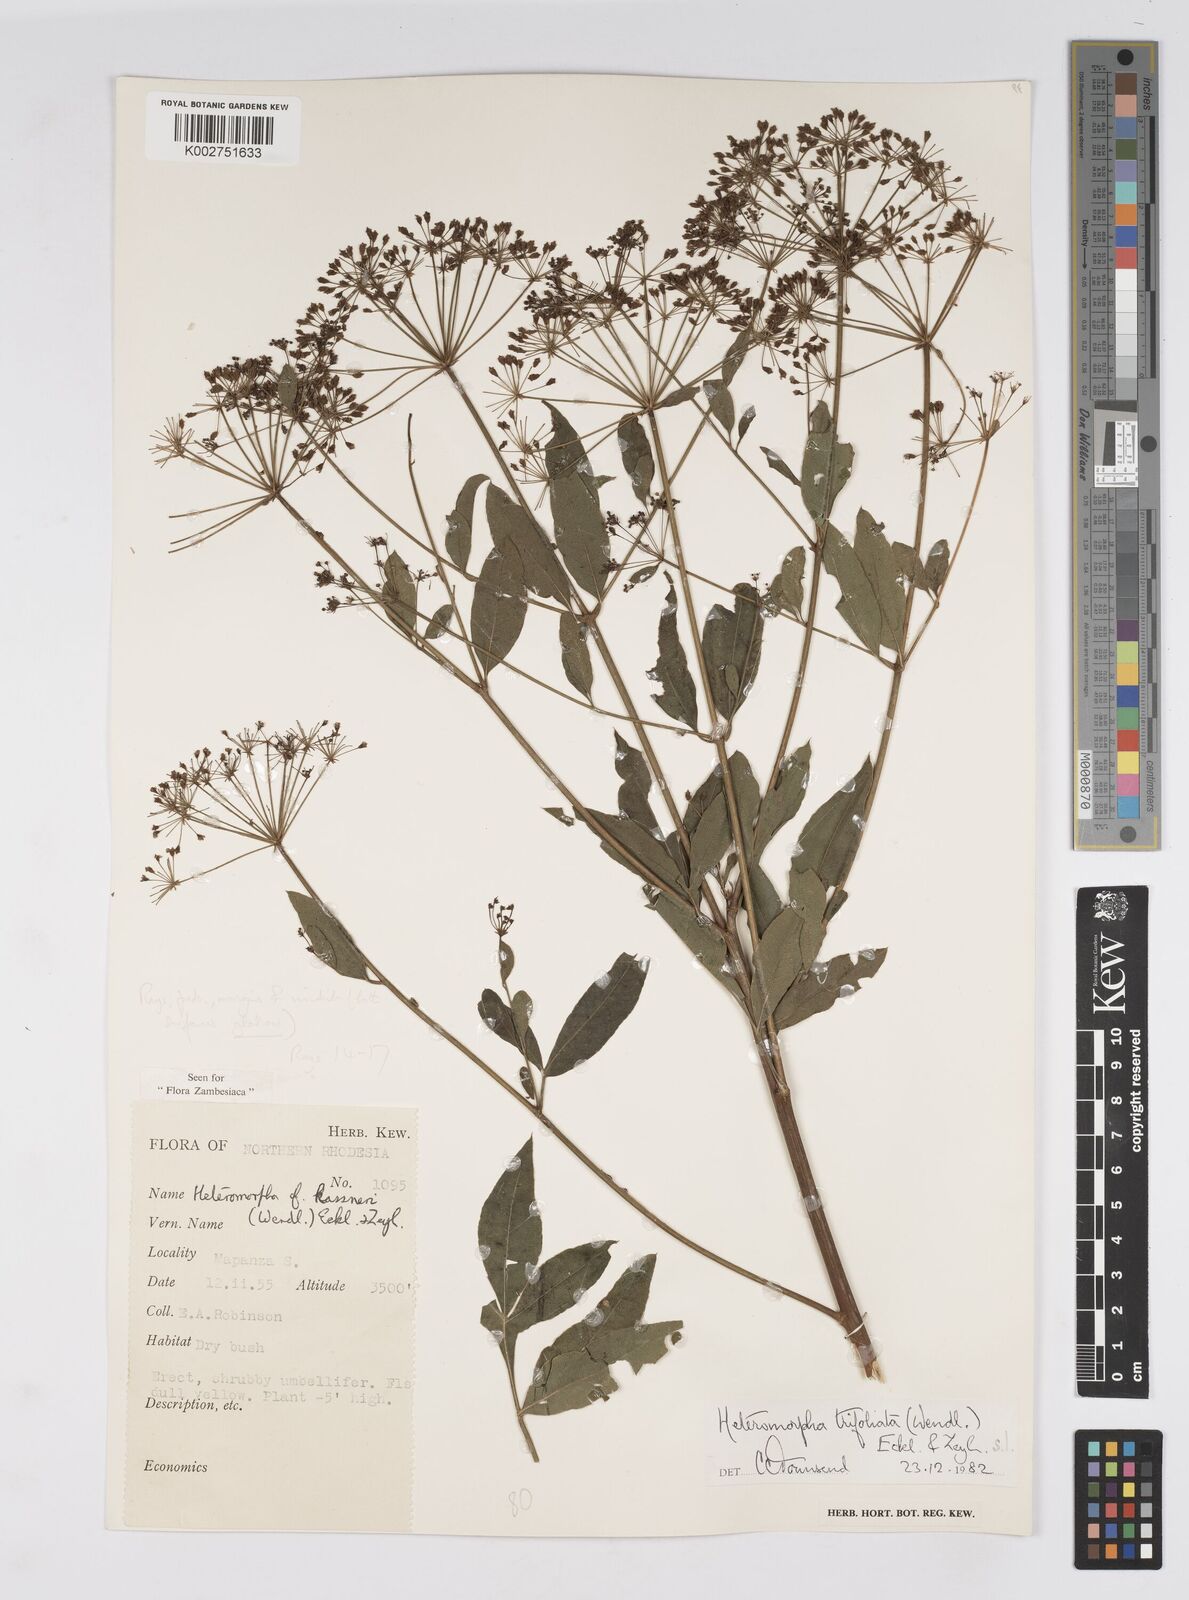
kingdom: Plantae
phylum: Tracheophyta
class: Magnoliopsida
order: Apiales
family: Apiaceae
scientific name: Apiaceae
